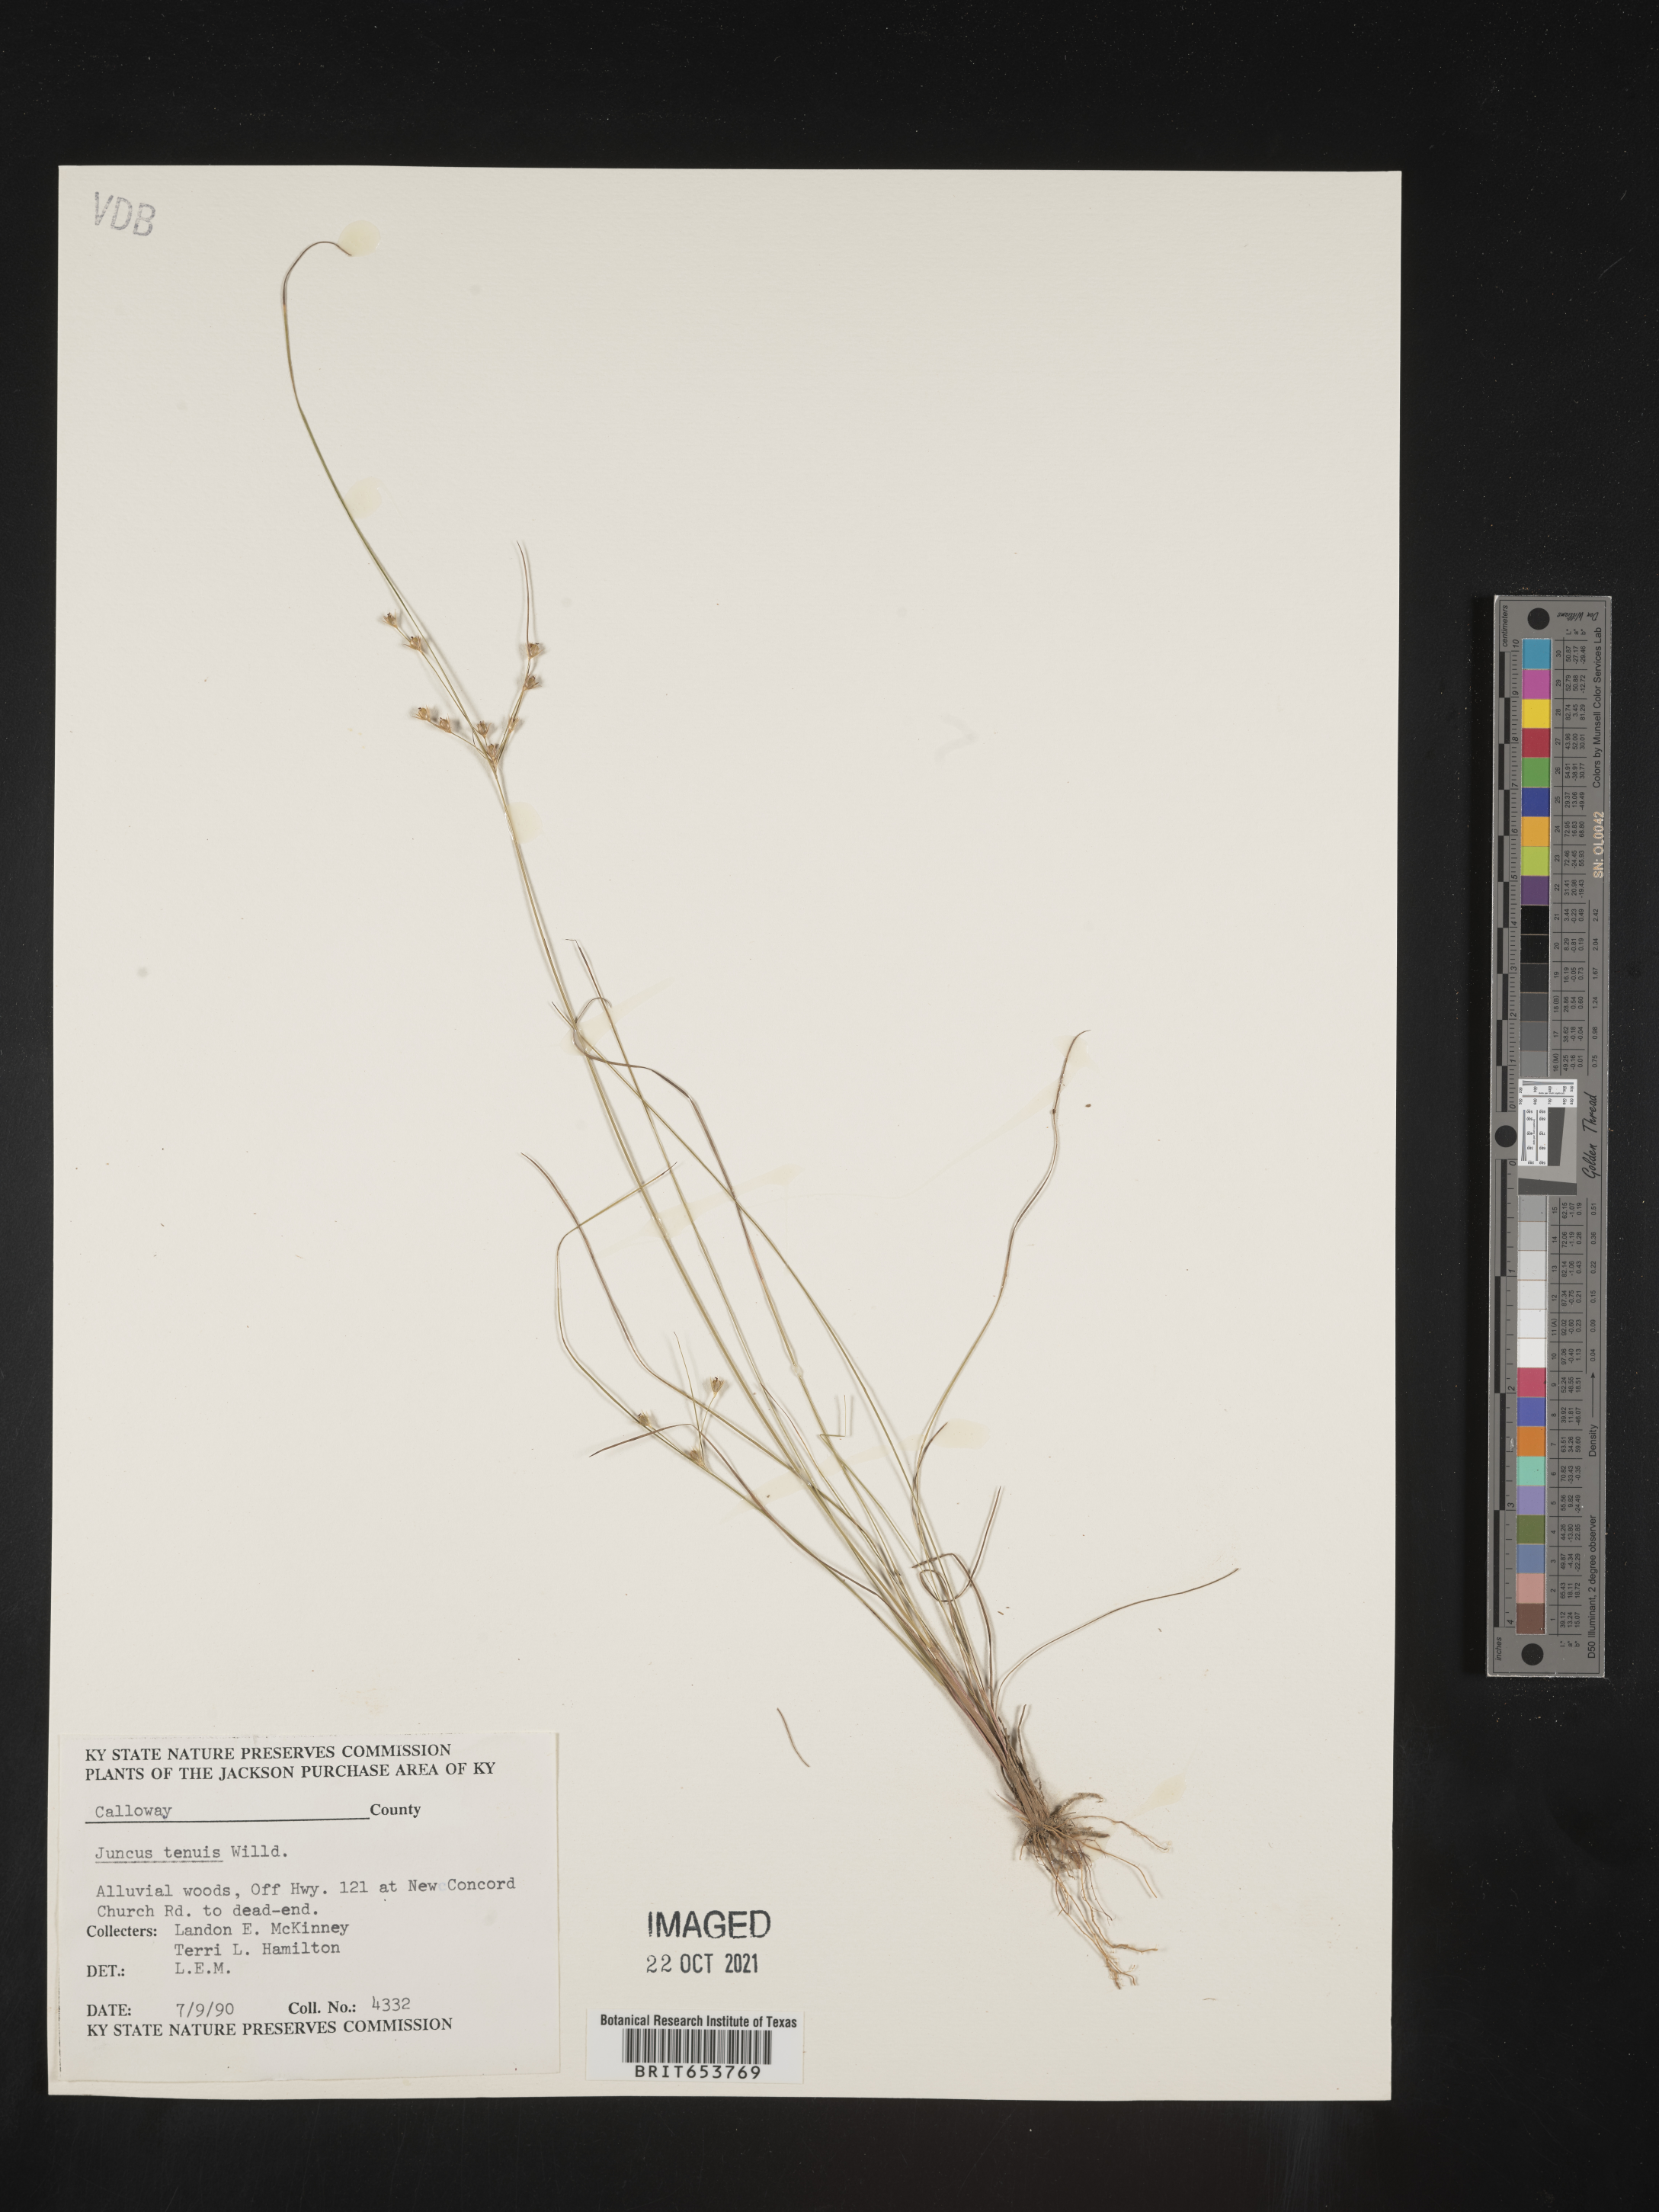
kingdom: Plantae
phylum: Tracheophyta
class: Liliopsida
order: Poales
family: Juncaceae
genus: Juncus
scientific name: Juncus tenuis
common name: Slender rush
